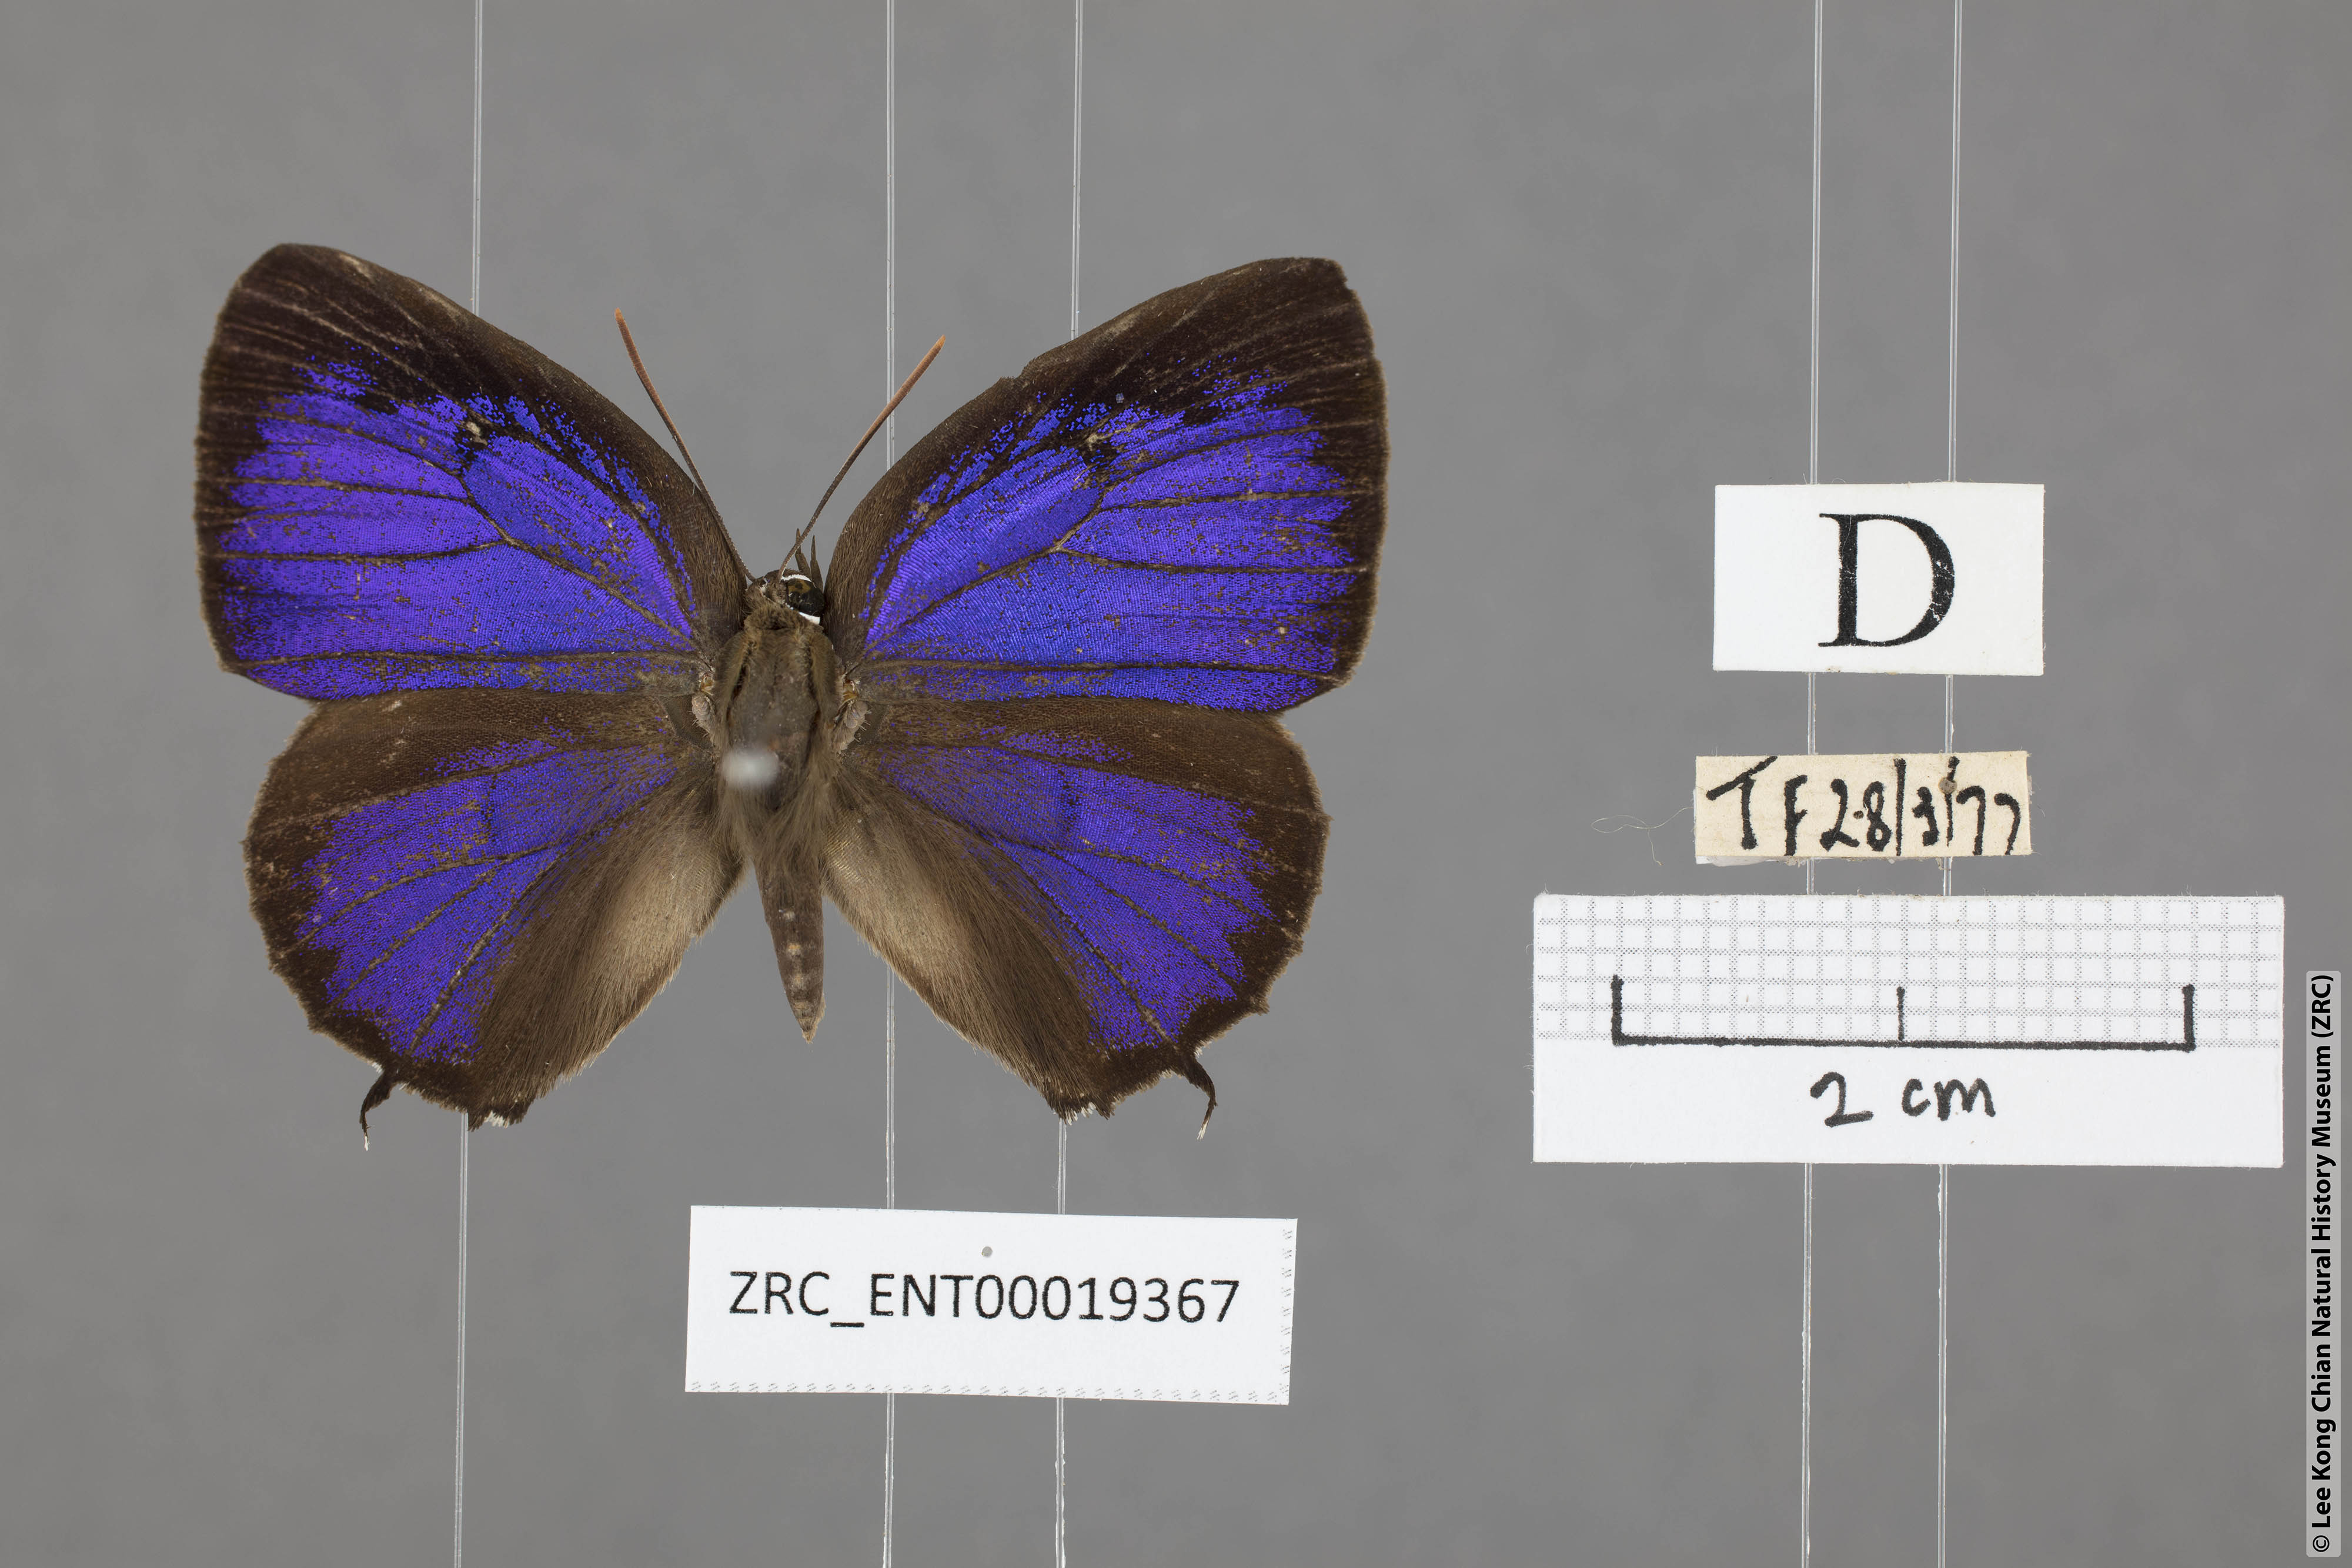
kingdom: Animalia
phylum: Arthropoda
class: Insecta
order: Lepidoptera
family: Lycaenidae
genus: Arhopala
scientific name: Arhopala corinda
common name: Ultramarine oakblue
